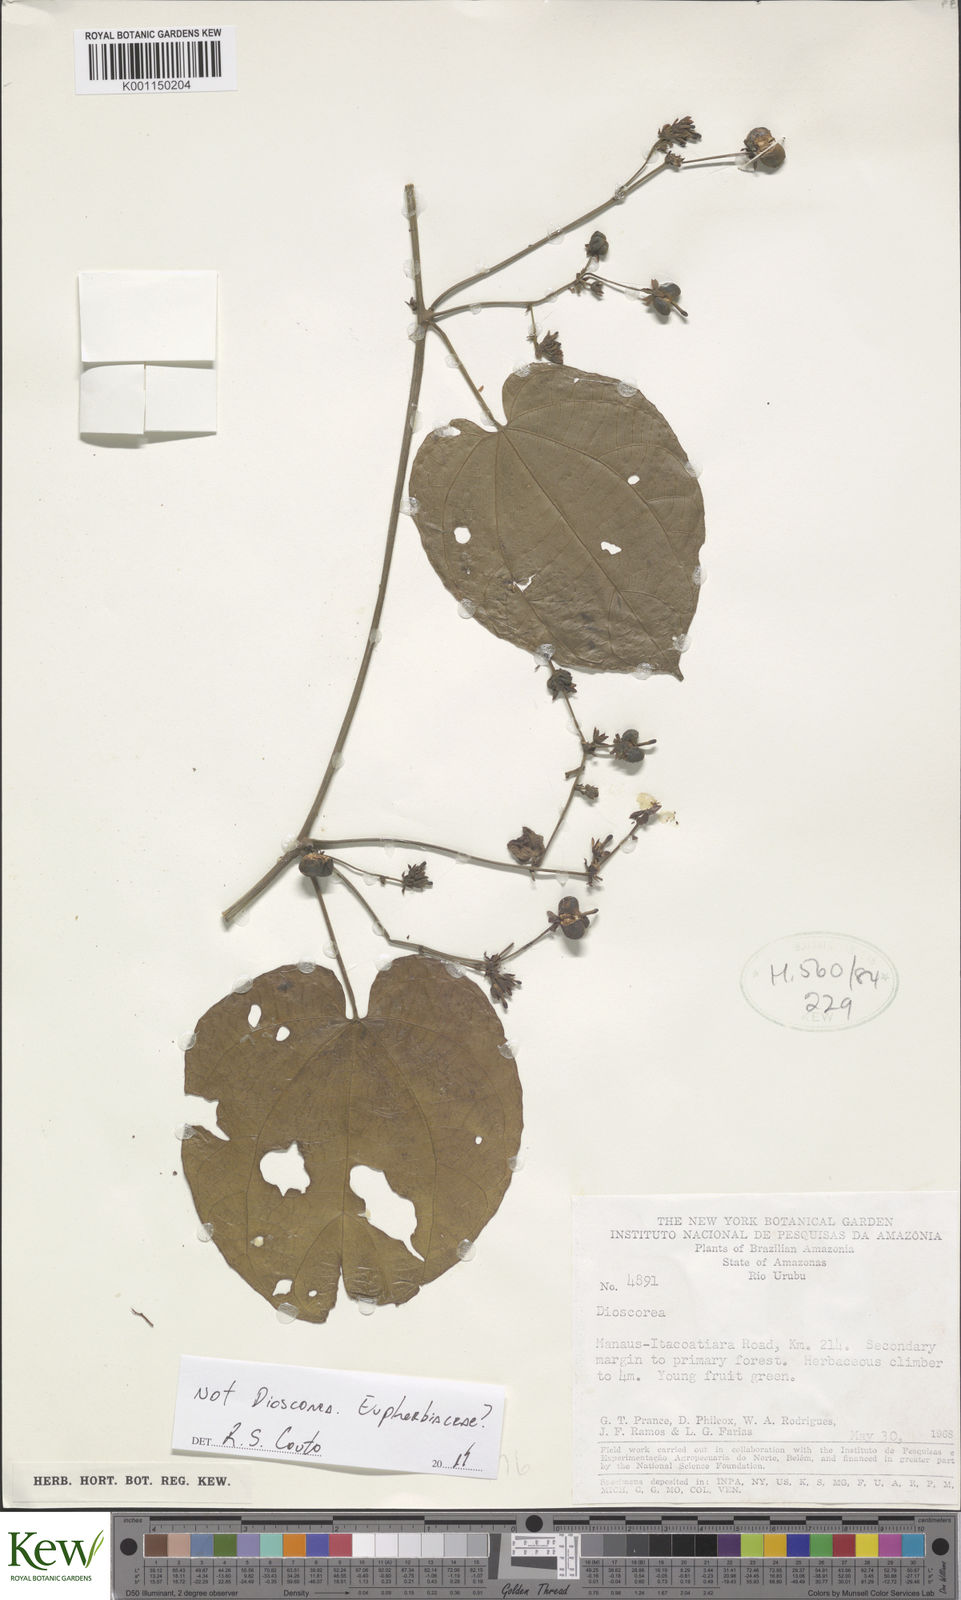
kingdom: Plantae
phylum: Tracheophyta
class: Magnoliopsida
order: Malpighiales
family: Euphorbiaceae
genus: Dalechampia
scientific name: Dalechampia parvibracteata
